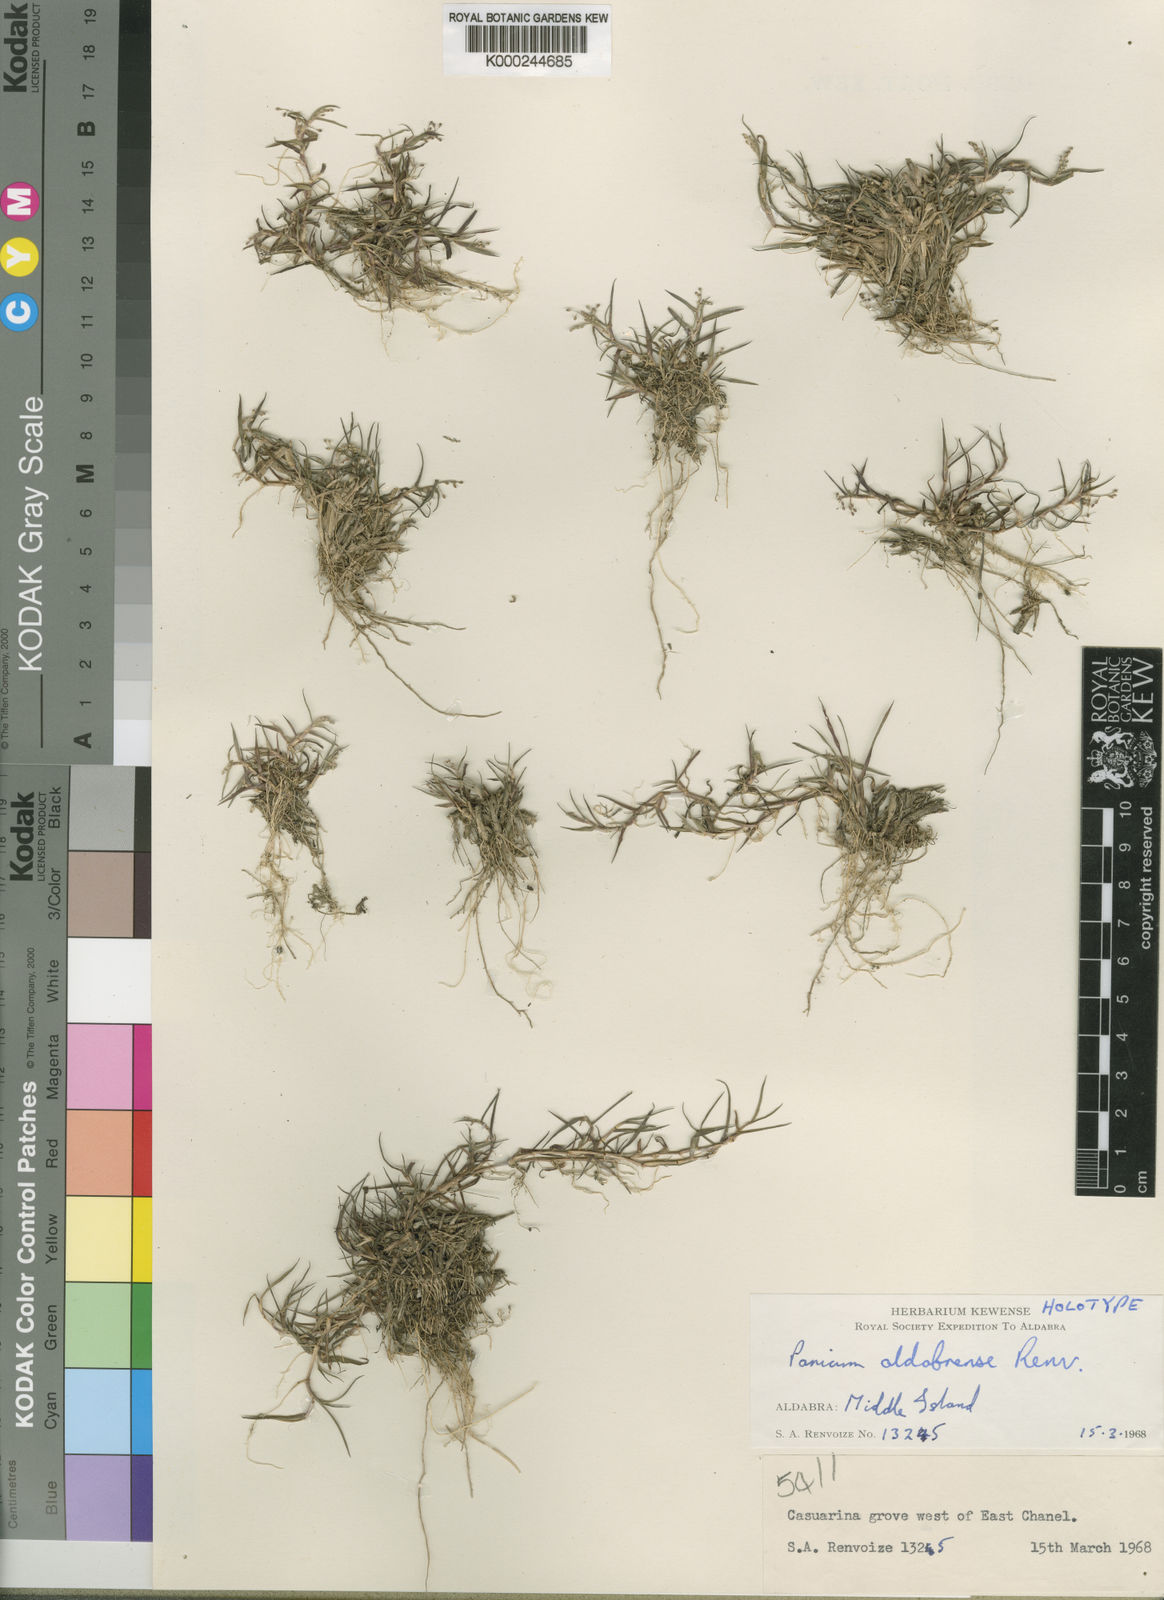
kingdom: Plantae
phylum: Tracheophyta
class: Liliopsida
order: Poales
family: Poaceae
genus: Panicum
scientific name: Panicum aldabrense
